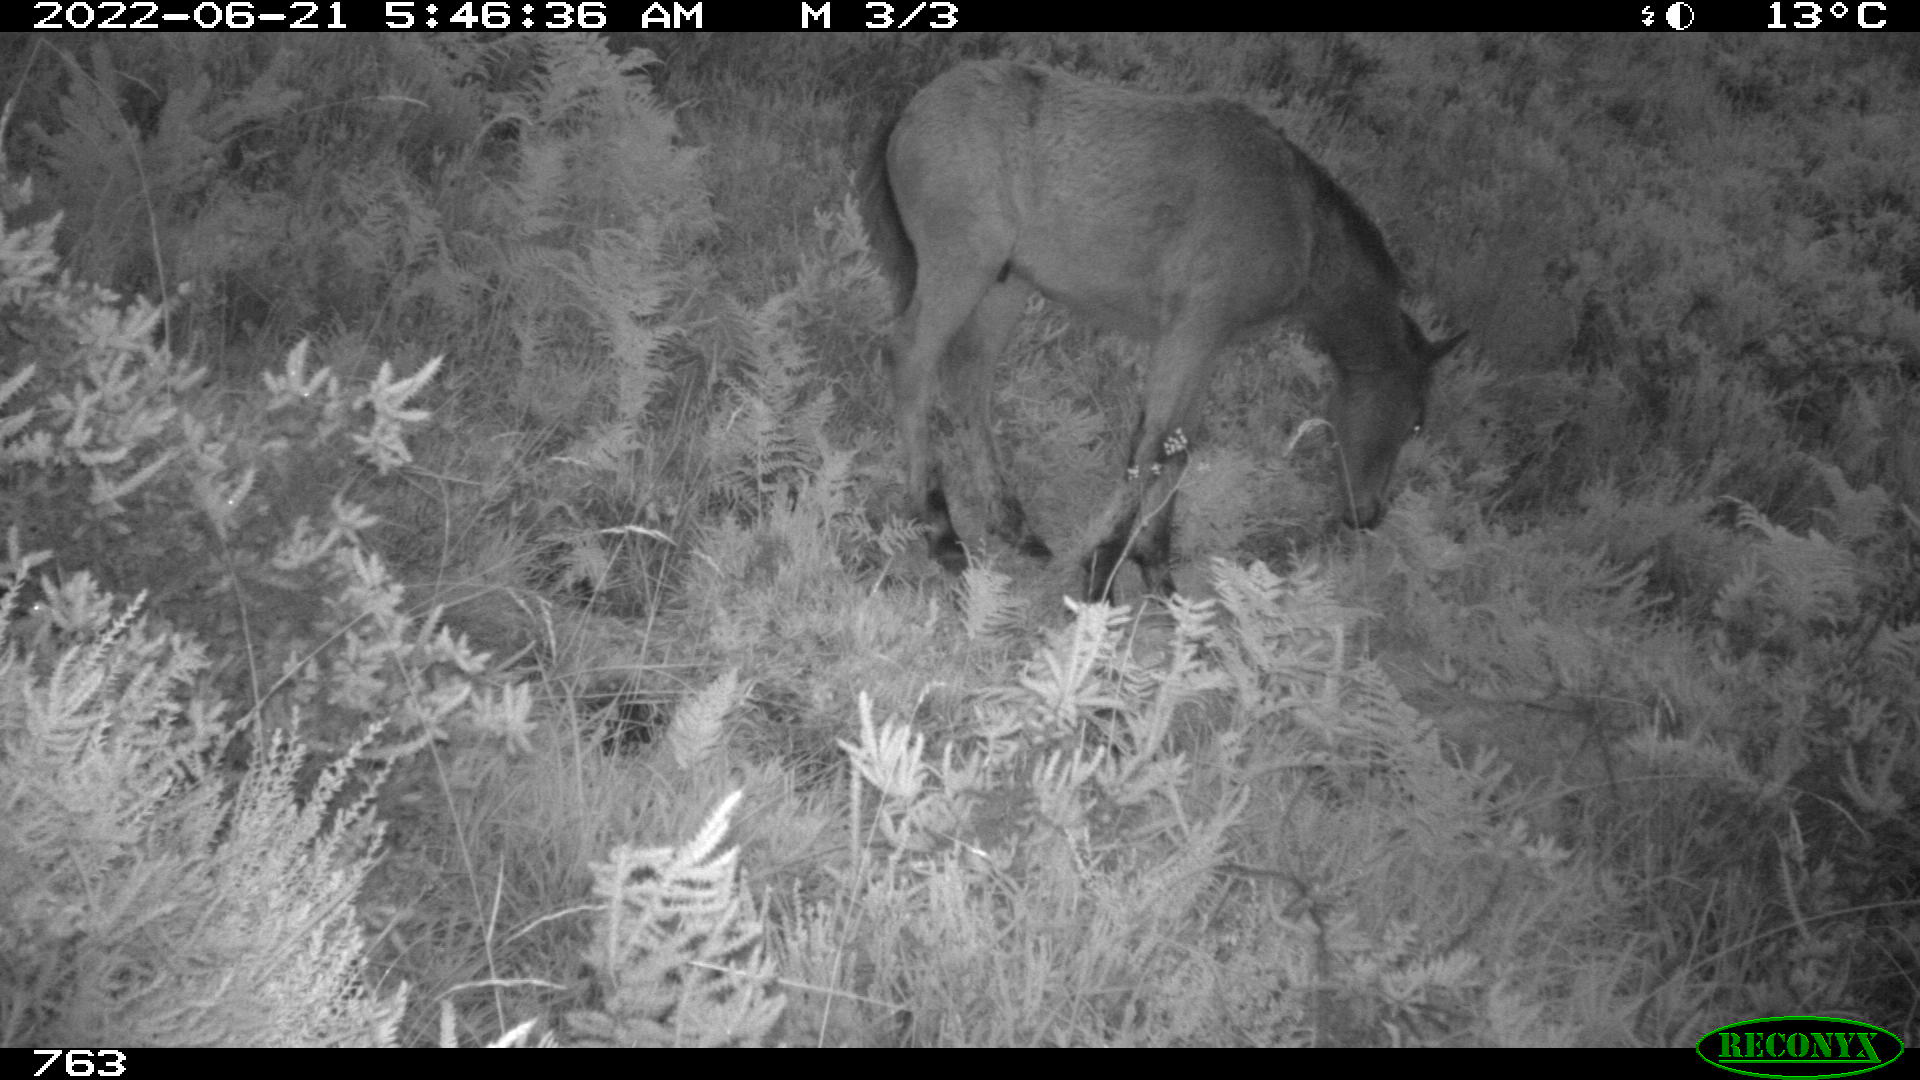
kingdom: Animalia
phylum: Chordata
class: Mammalia
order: Perissodactyla
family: Equidae
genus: Equus
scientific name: Equus caballus
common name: Horse
